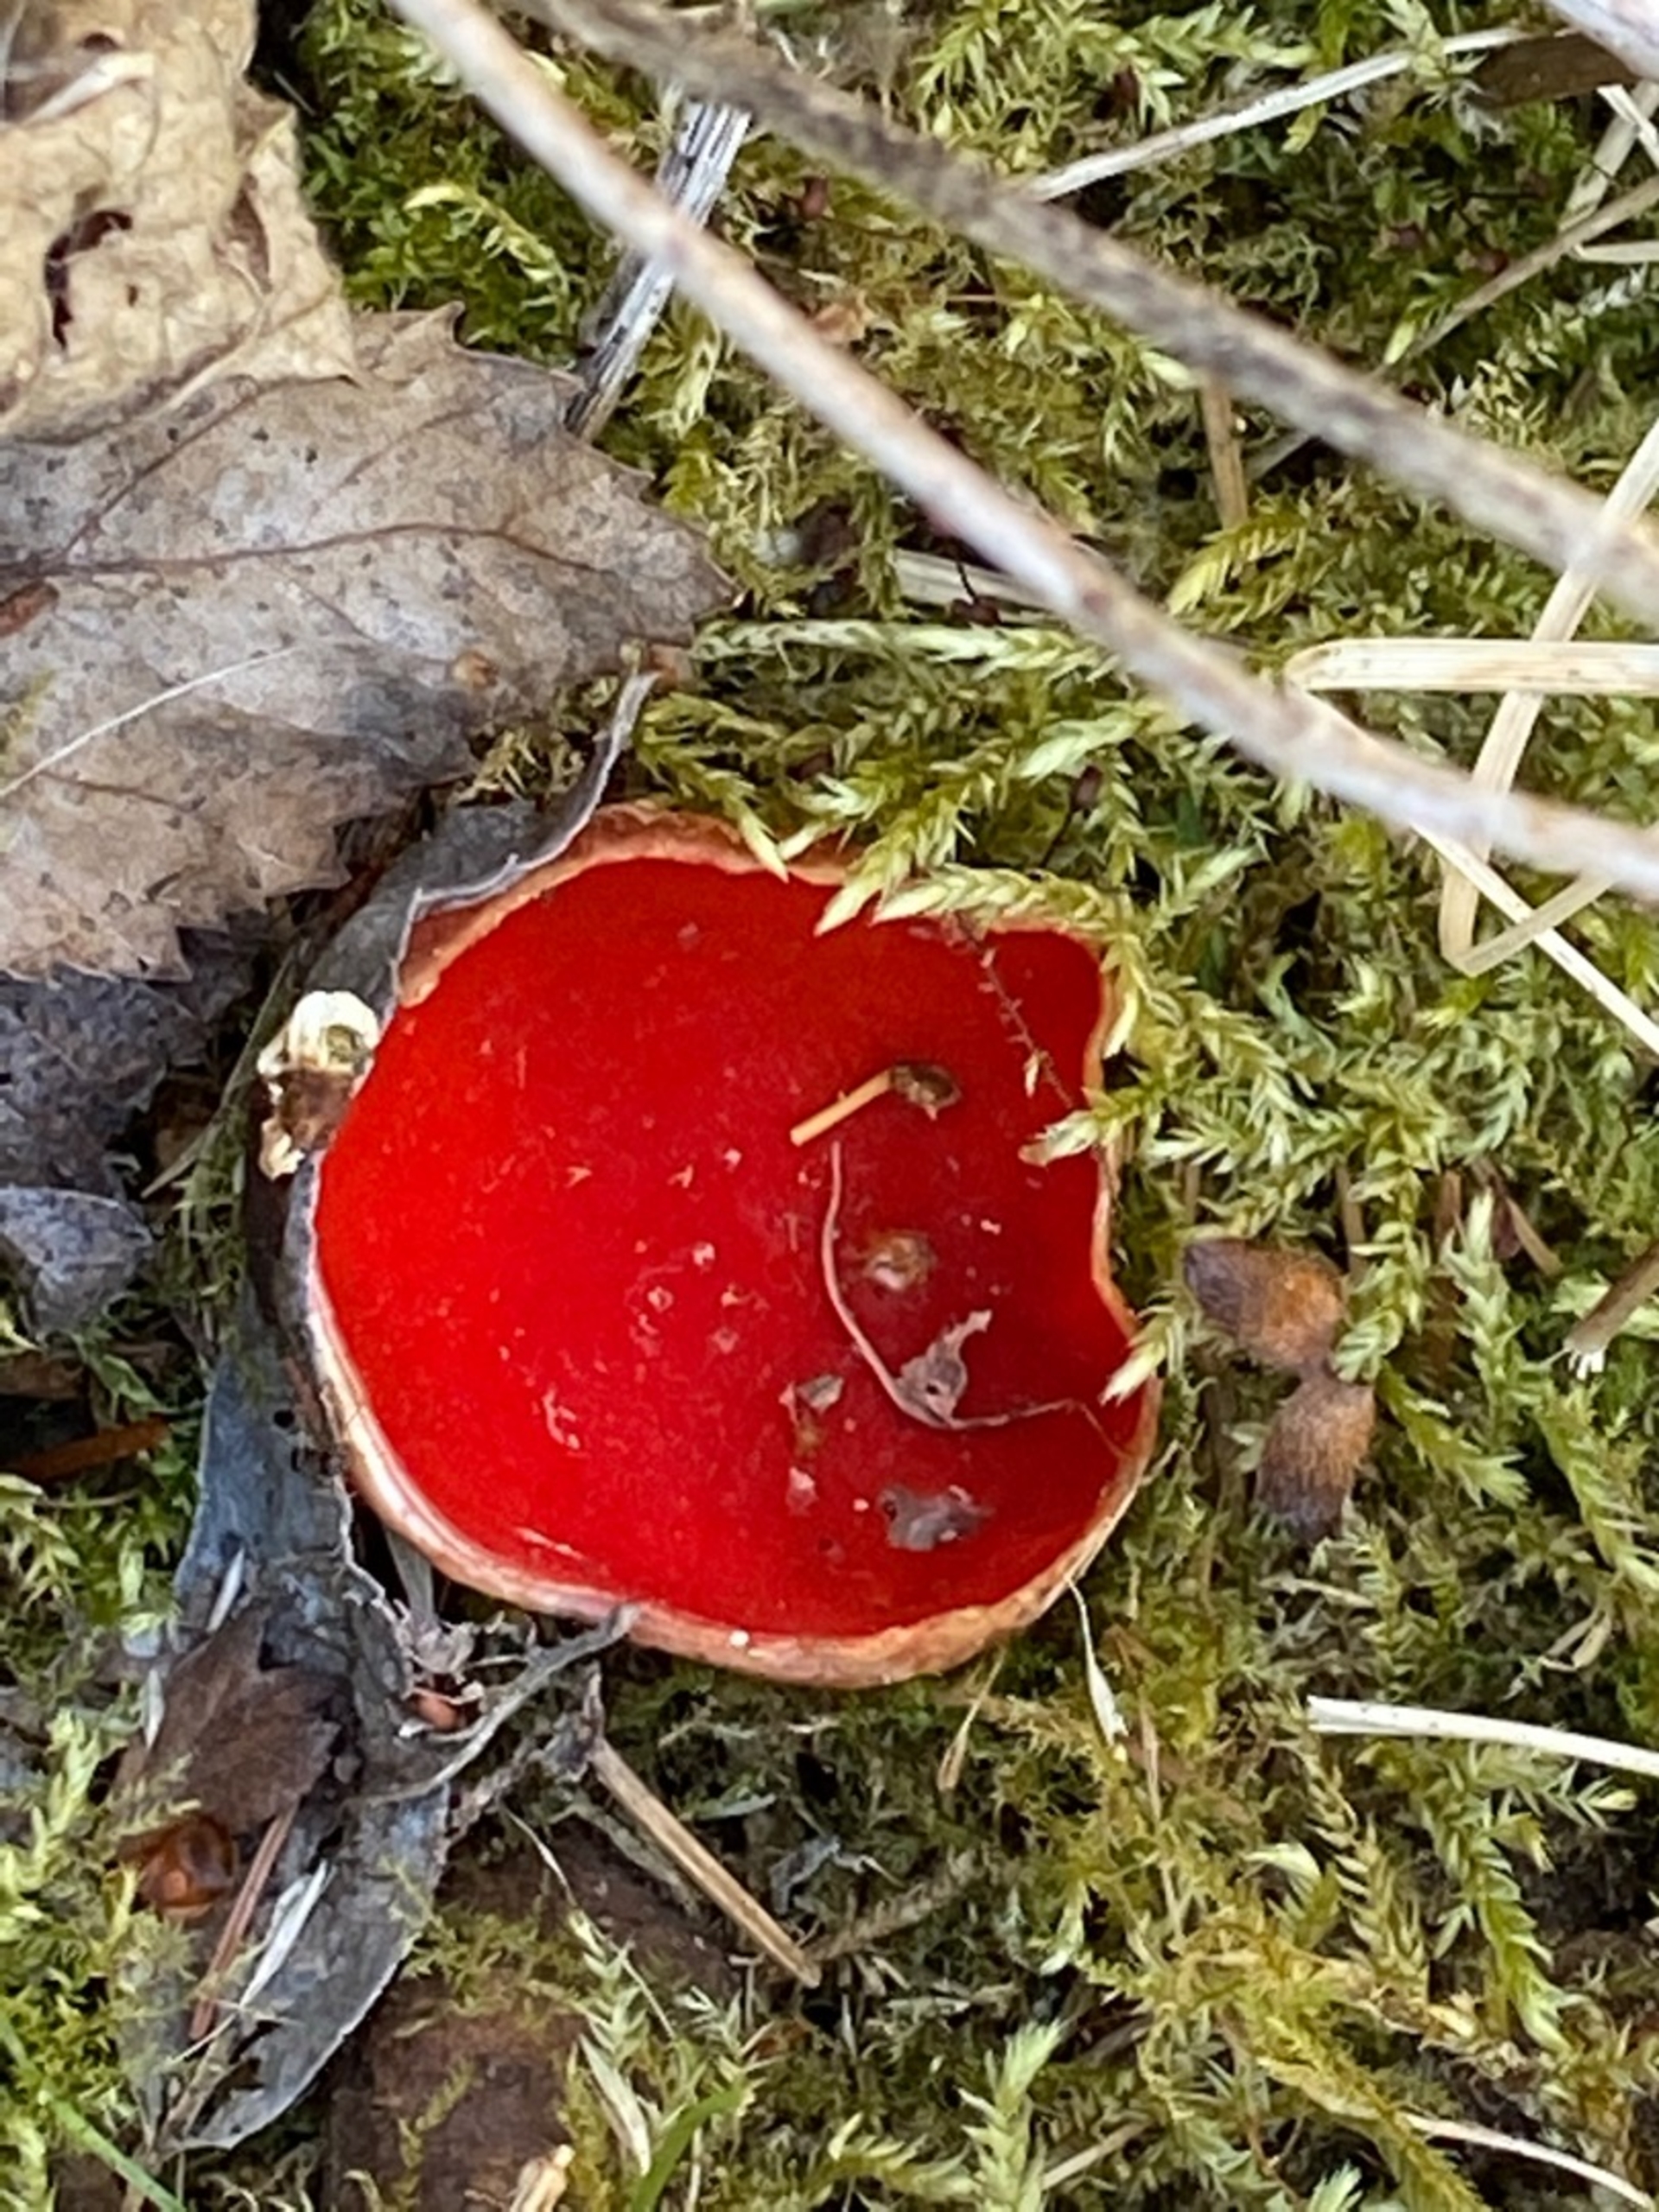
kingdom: Fungi
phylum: Ascomycota
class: Pezizomycetes
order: Pezizales
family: Sarcoscyphaceae
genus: Sarcoscypha
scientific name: Sarcoscypha austriaca
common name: Krølhåret pragtbæger
